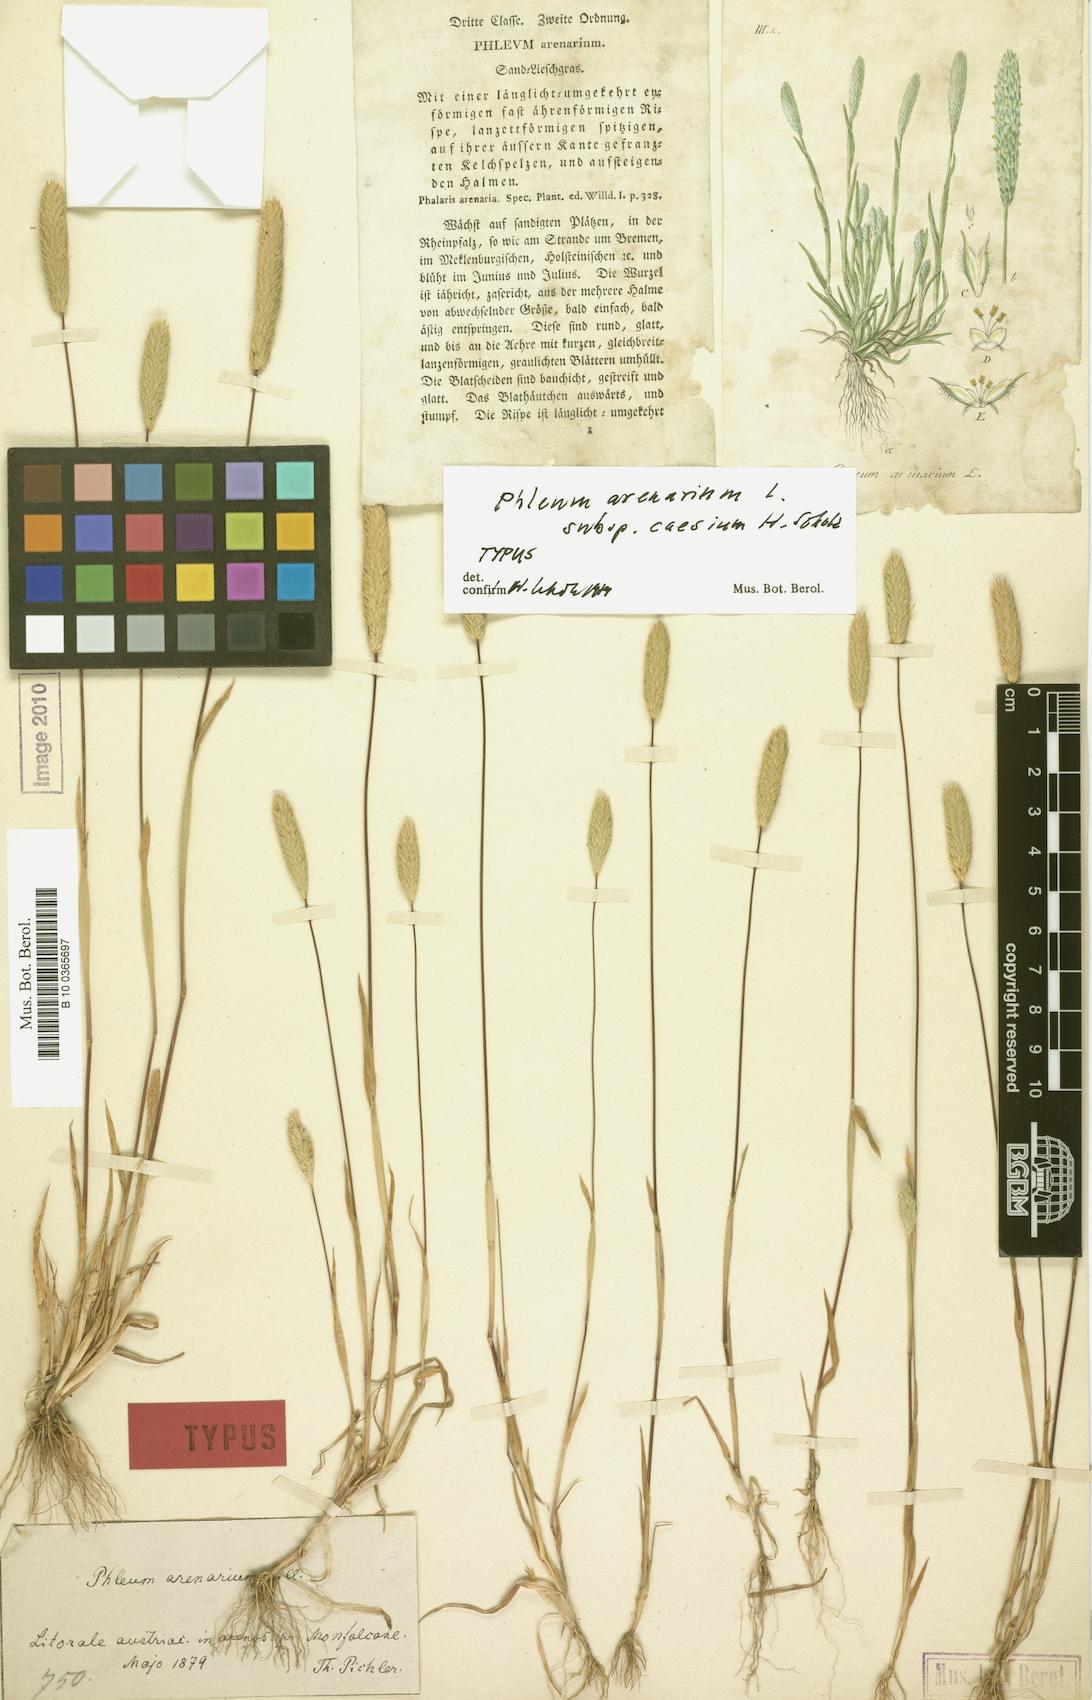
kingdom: Plantae
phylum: Tracheophyta
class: Liliopsida
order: Poales
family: Poaceae
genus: Phleum
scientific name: Phleum arenarium
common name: Sand cat's-tail
